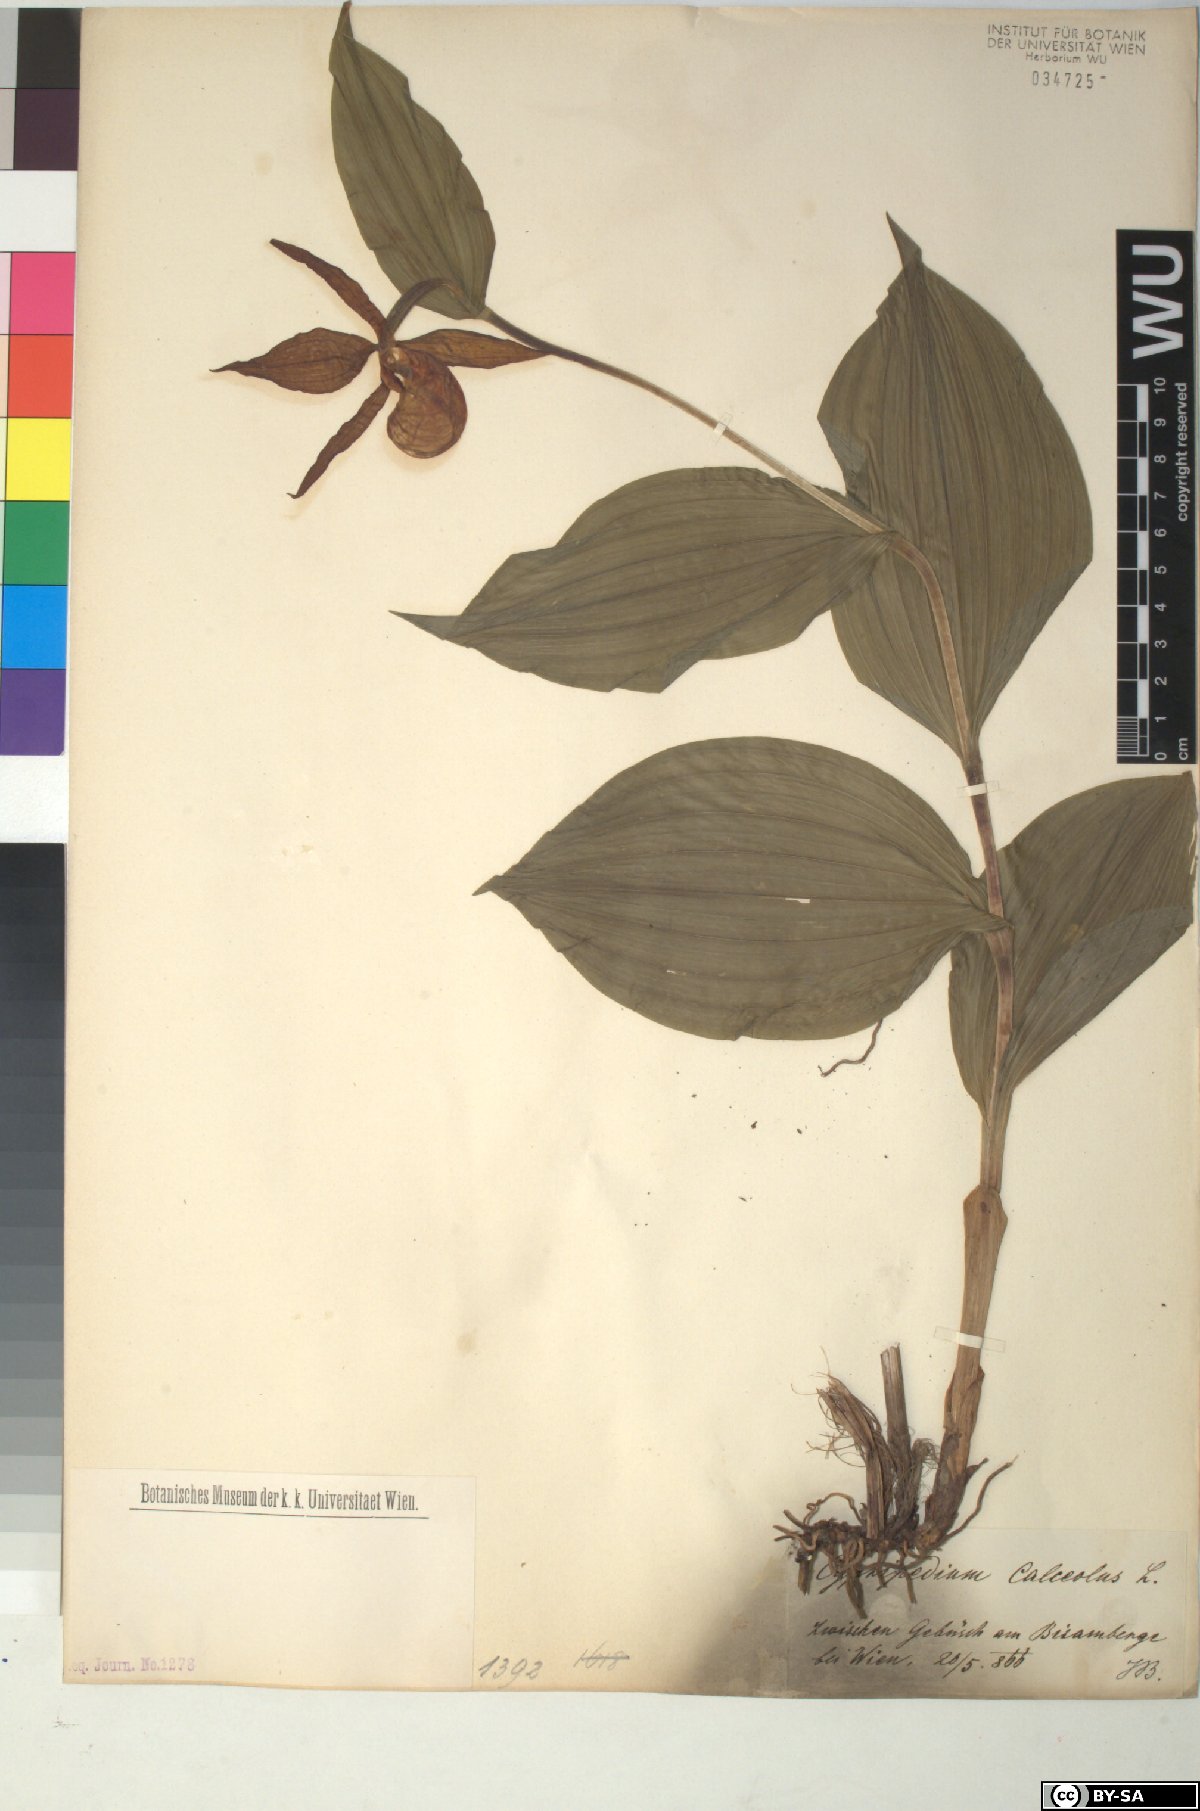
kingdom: Plantae
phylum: Tracheophyta
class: Liliopsida
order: Asparagales
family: Orchidaceae
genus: Cypripedium
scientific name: Cypripedium calceolus
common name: Lady's-slipper
